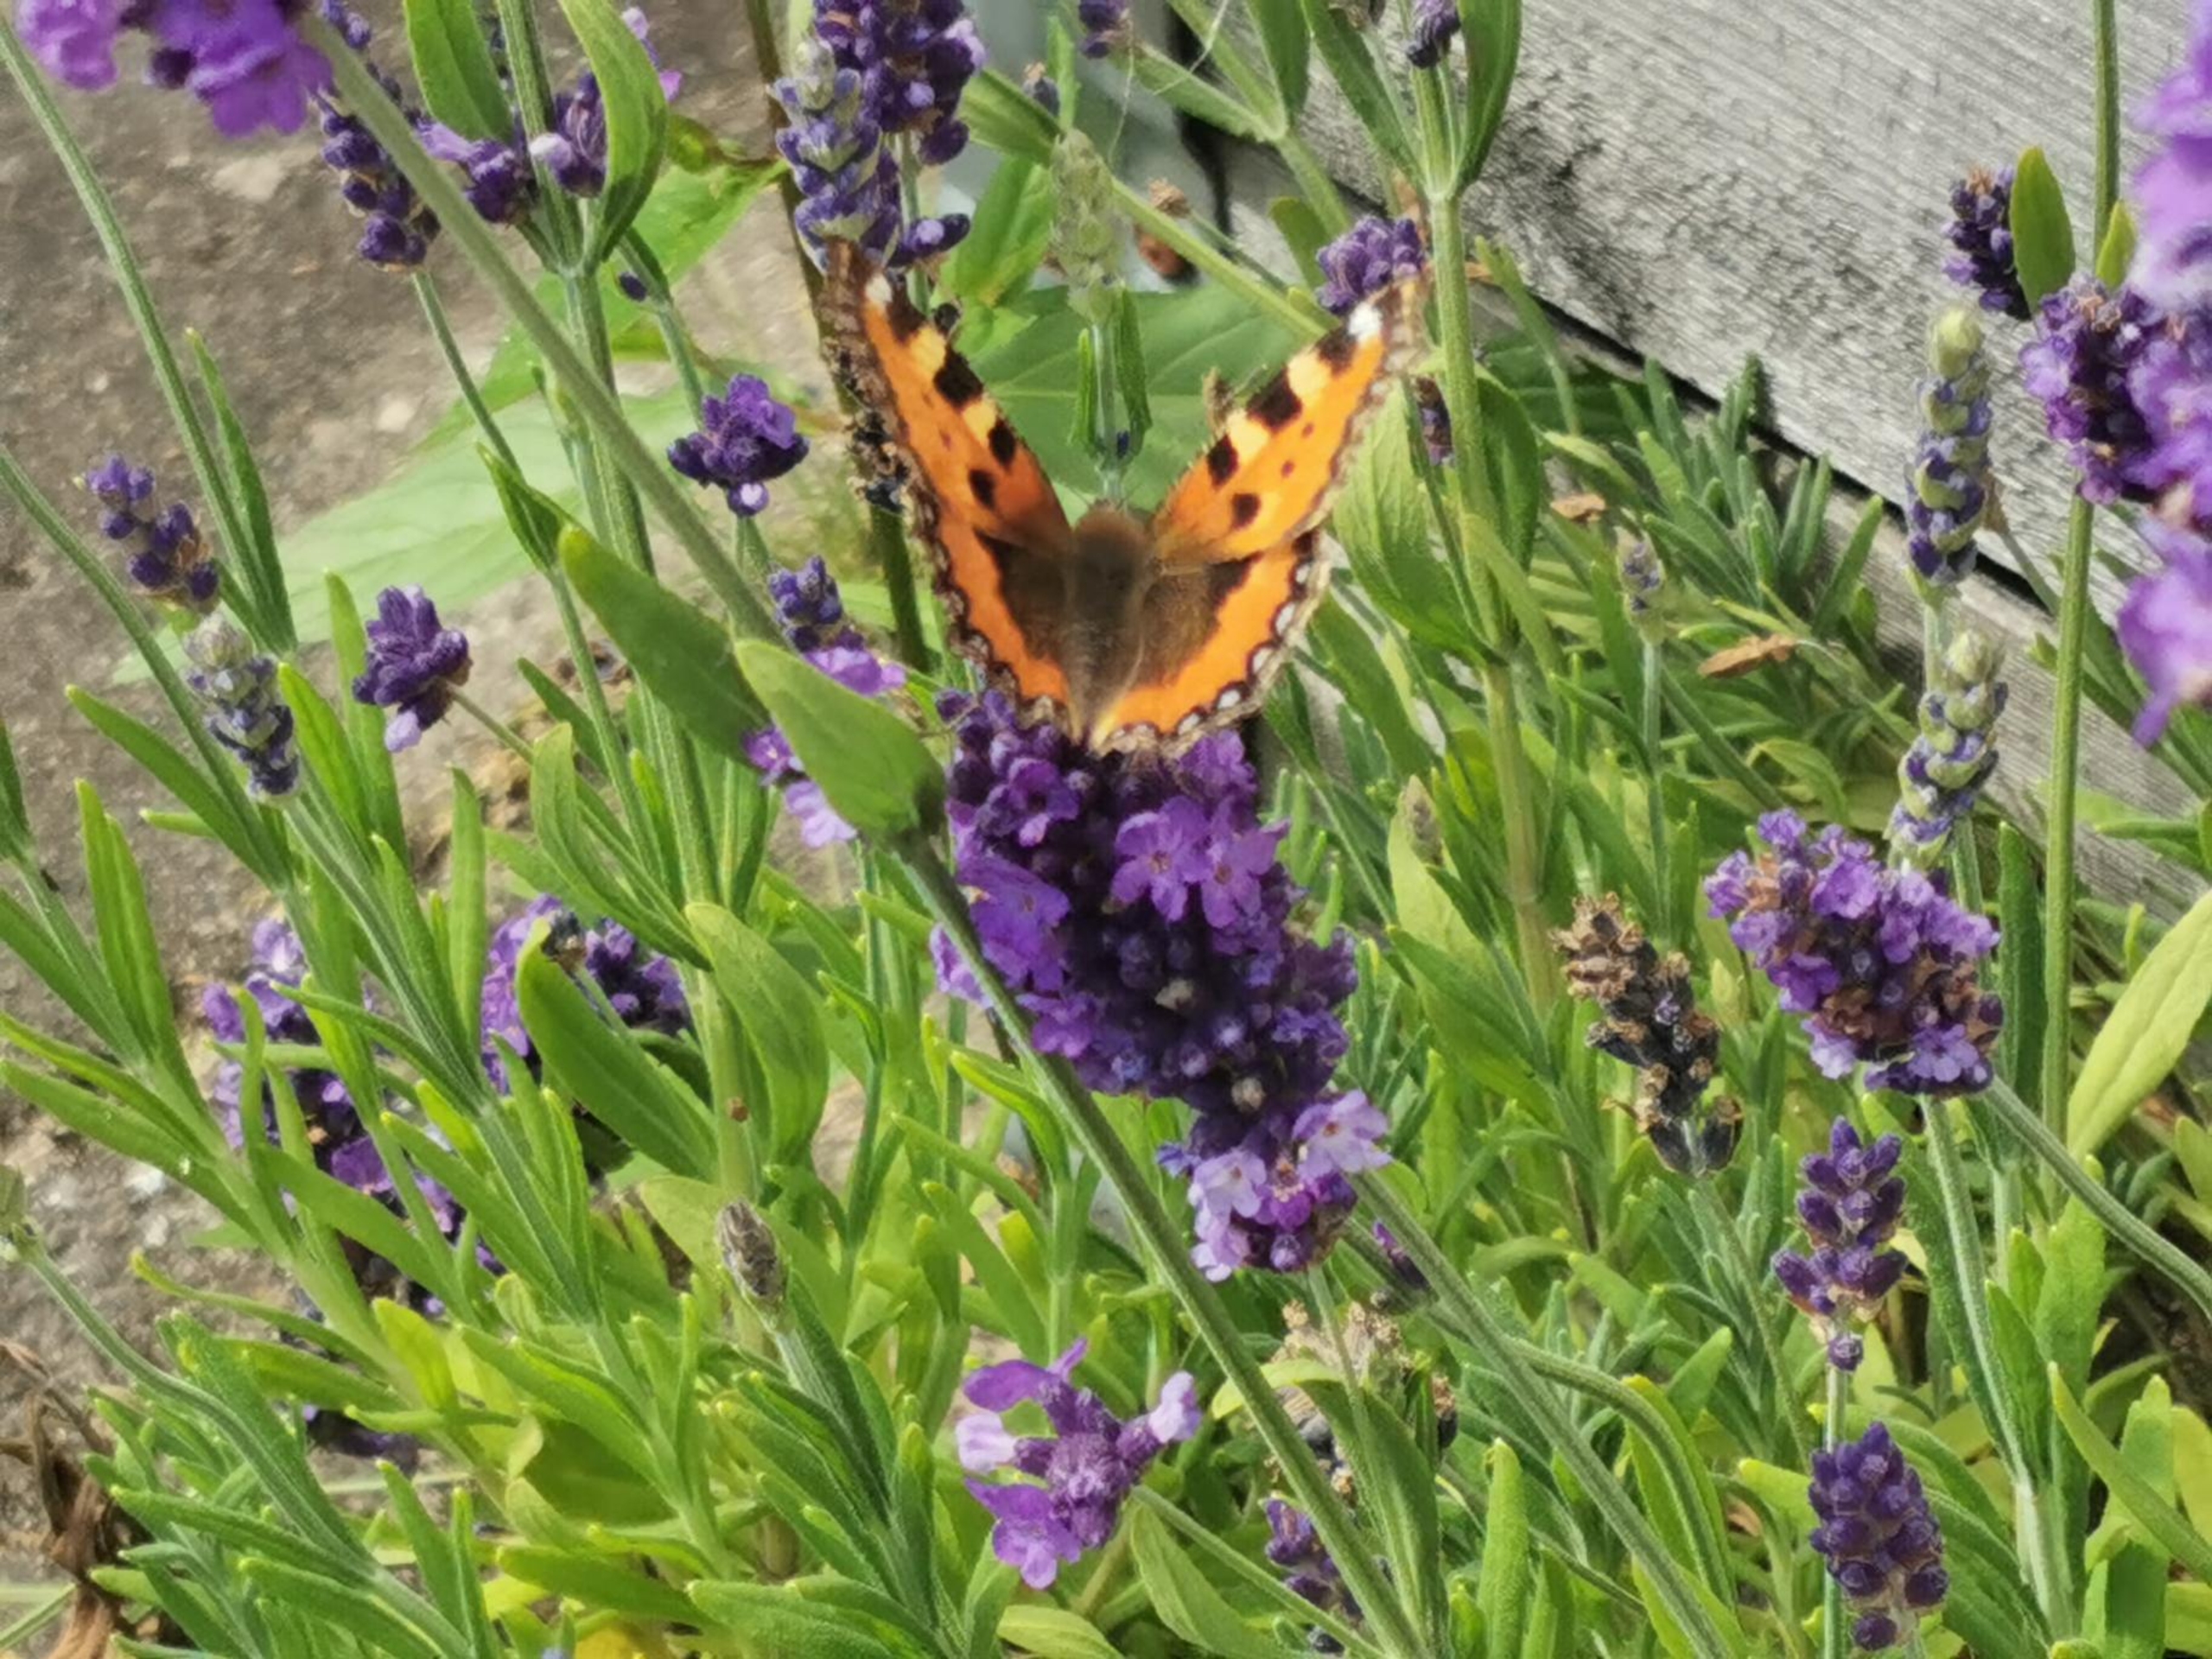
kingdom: Animalia
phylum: Arthropoda
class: Insecta
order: Lepidoptera
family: Nymphalidae
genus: Aglais
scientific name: Aglais urticae
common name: Nældens takvinge
